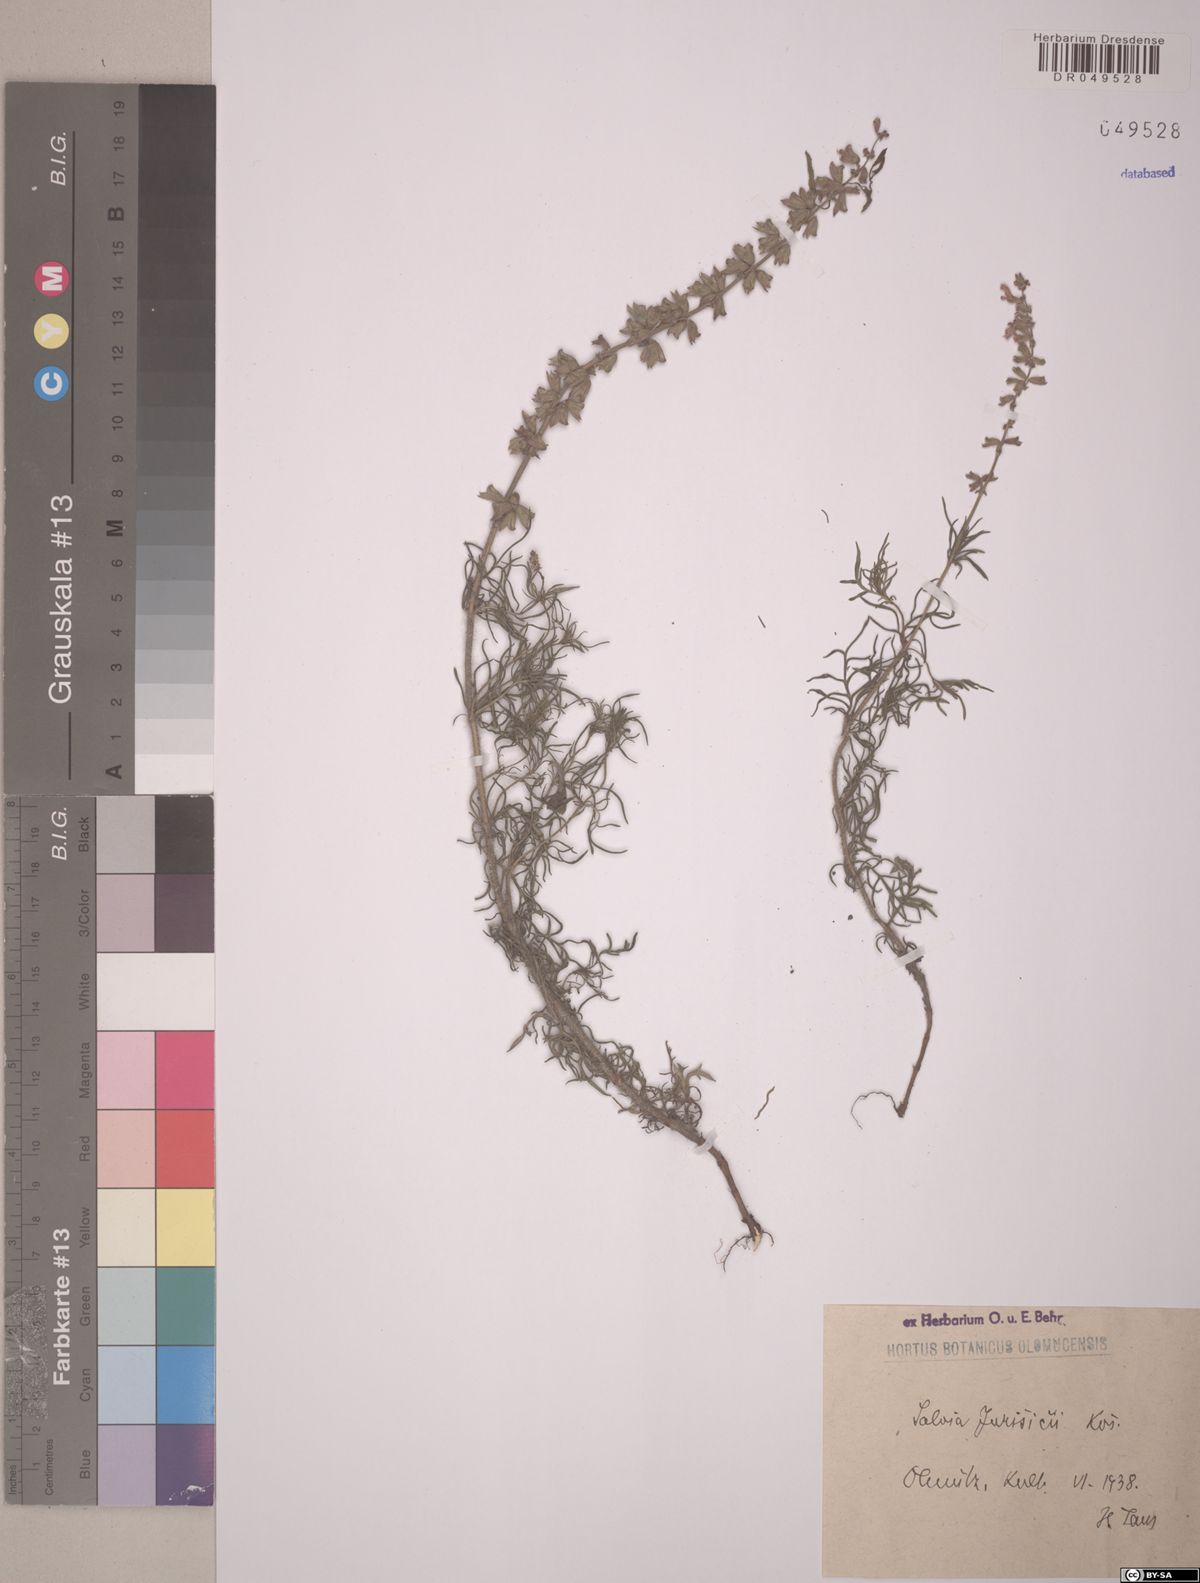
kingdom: Plantae
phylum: Tracheophyta
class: Magnoliopsida
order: Lamiales
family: Lamiaceae
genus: Salvia
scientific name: Salvia jurisicii
